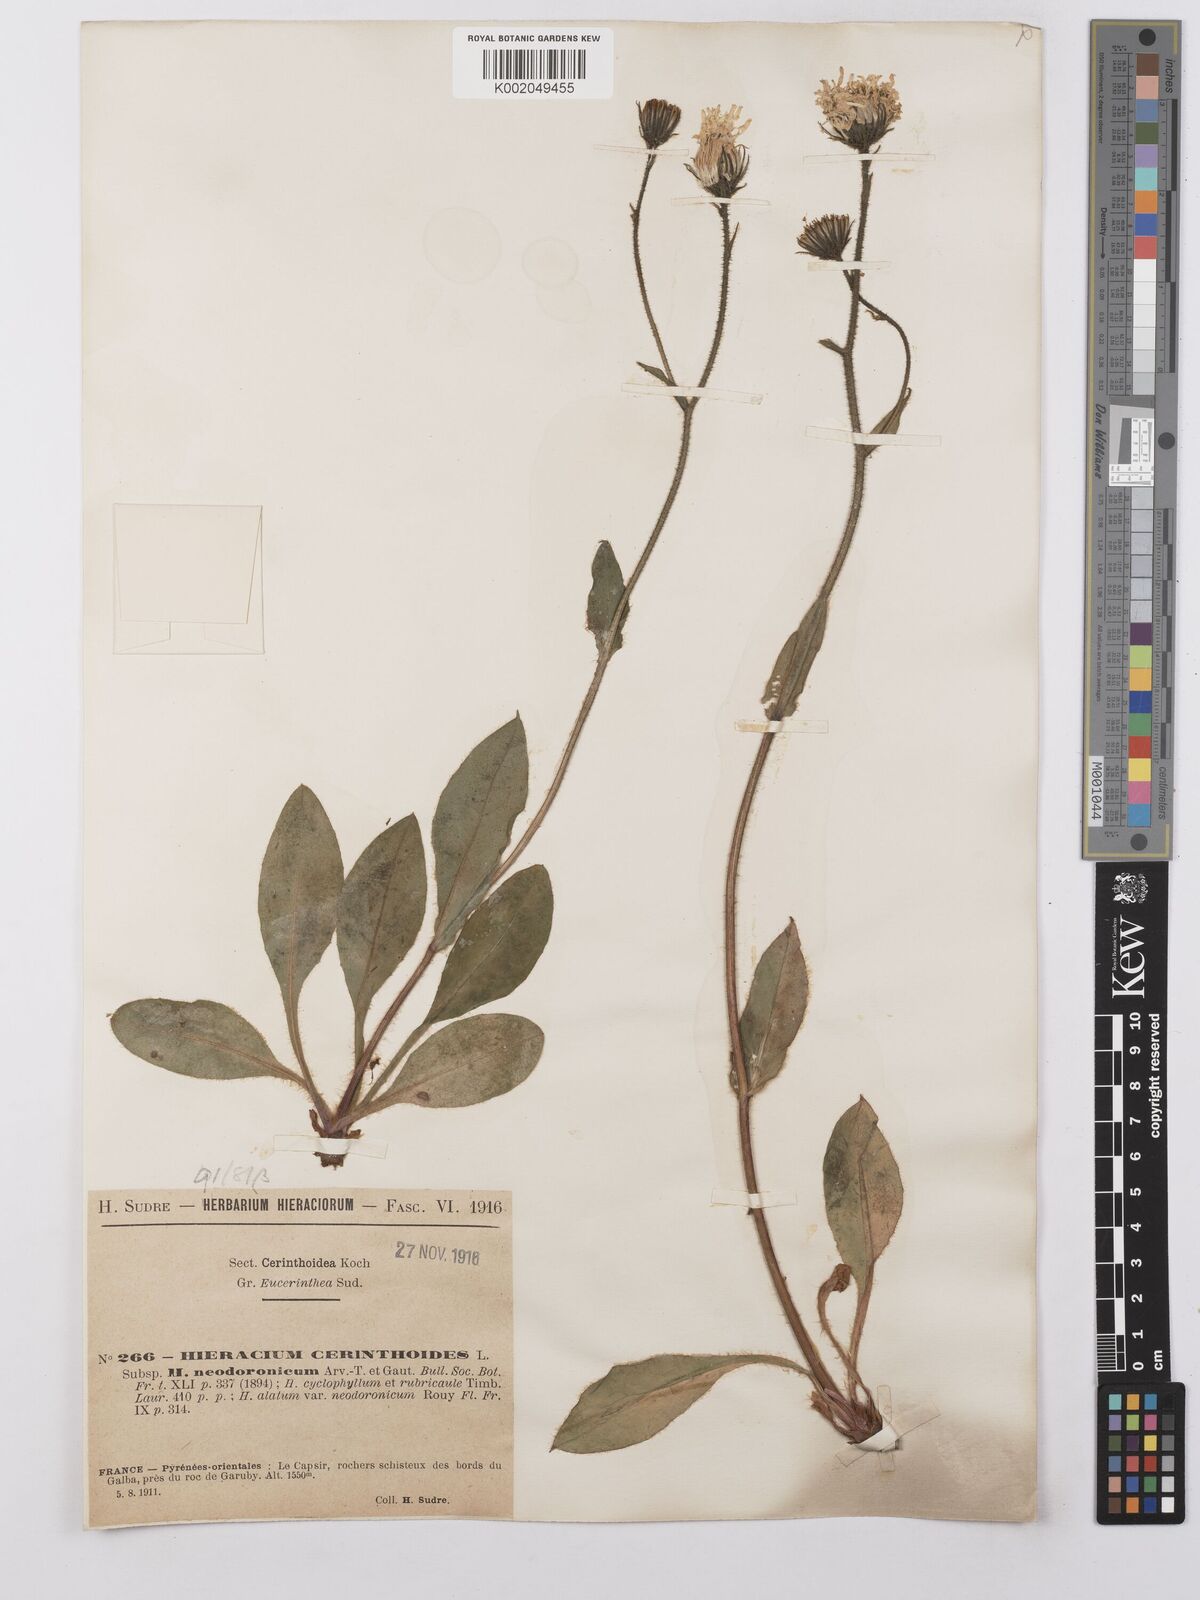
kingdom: Plantae
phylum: Tracheophyta
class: Magnoliopsida
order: Asterales
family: Asteraceae
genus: Hieracium
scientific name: Hieracium ramondii
